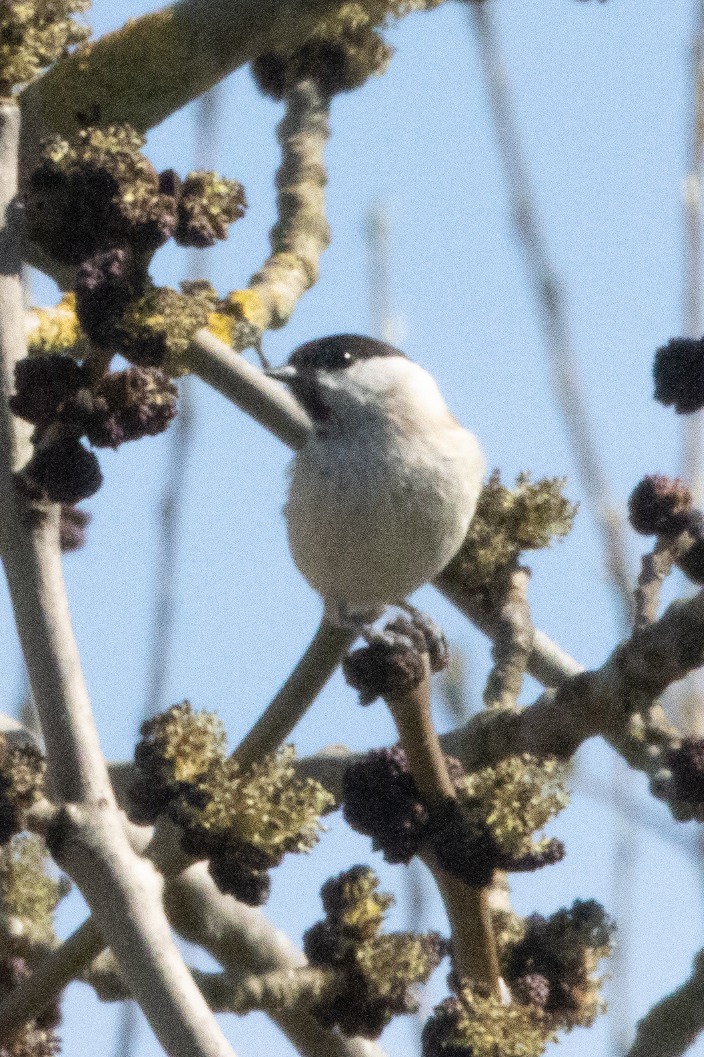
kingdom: Animalia
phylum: Chordata
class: Aves
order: Passeriformes
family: Paridae
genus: Poecile
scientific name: Poecile palustris
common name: Sumpmejse
